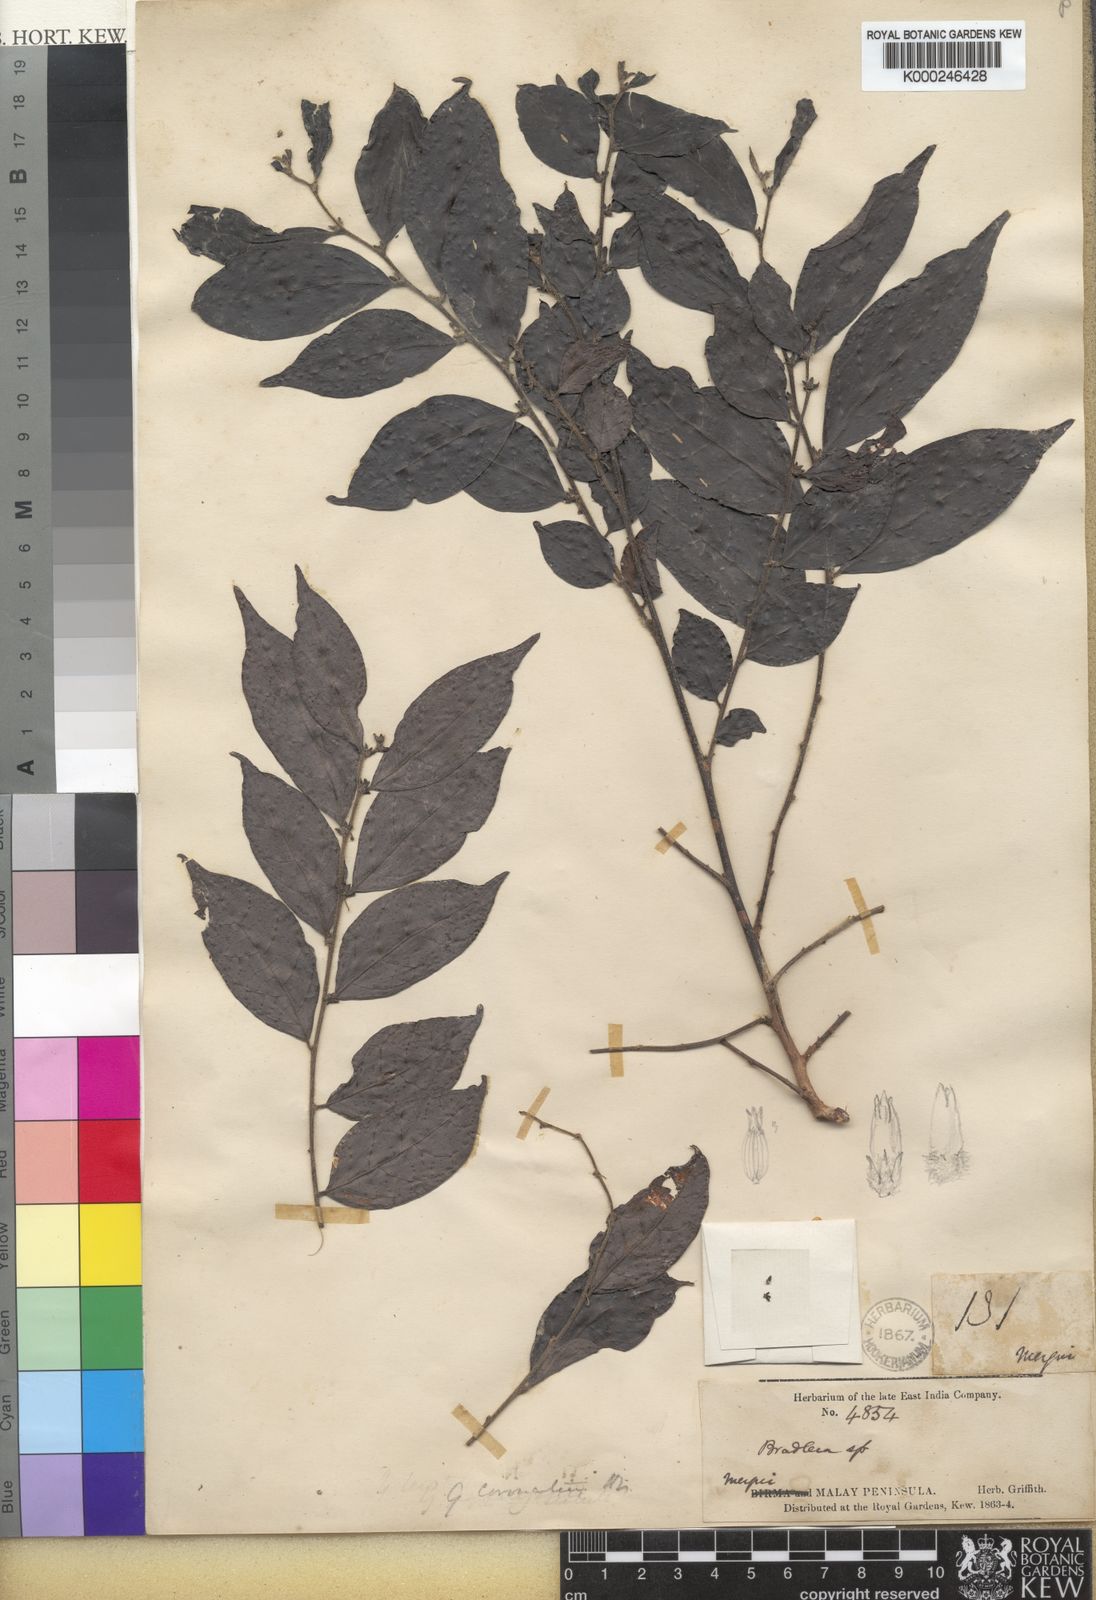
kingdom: Plantae
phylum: Tracheophyta
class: Magnoliopsida
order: Malpighiales
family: Phyllanthaceae
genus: Glochidion
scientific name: Glochidion
